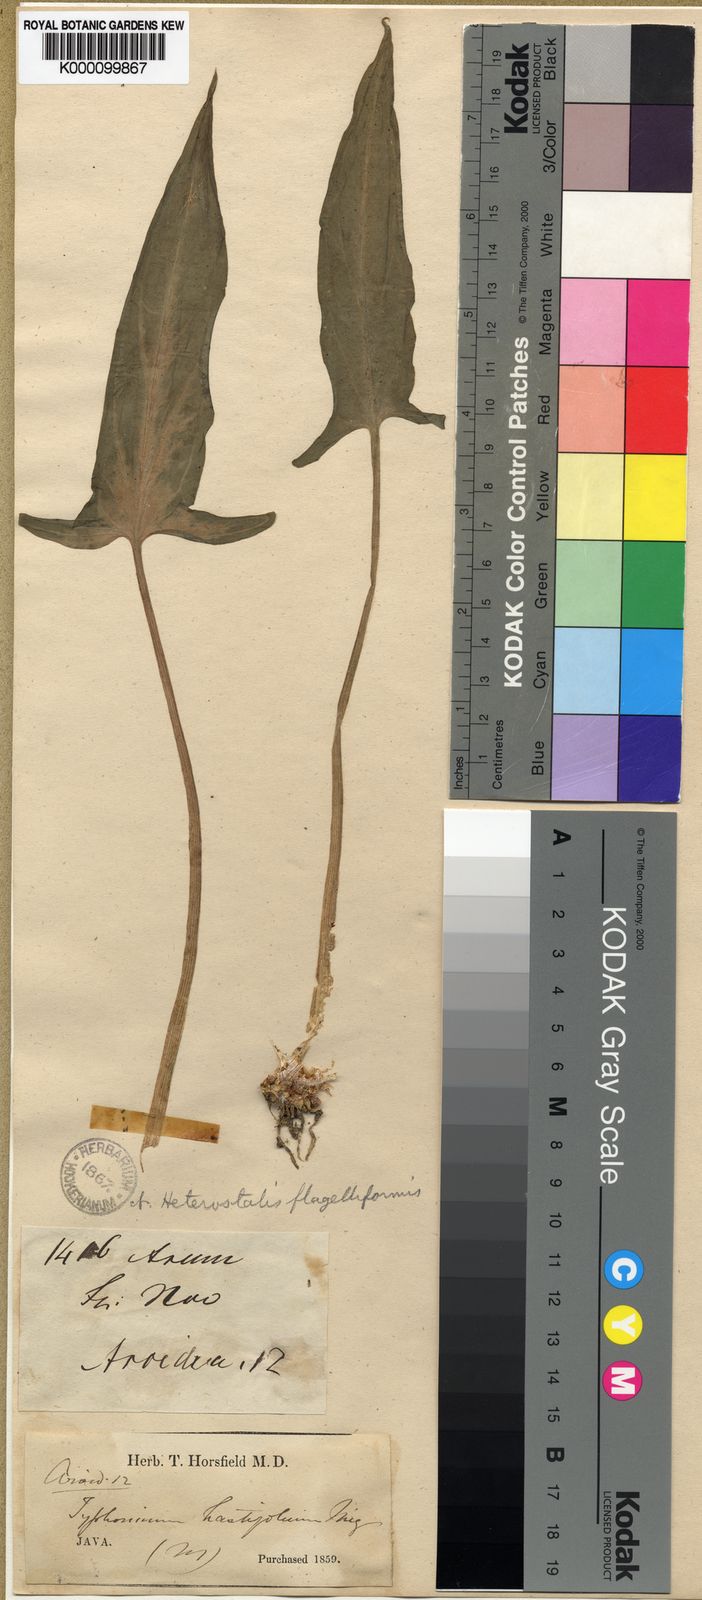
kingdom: Plantae
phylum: Tracheophyta
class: Liliopsida
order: Alismatales
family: Araceae
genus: Typhonium
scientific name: Typhonium flagelliforme
